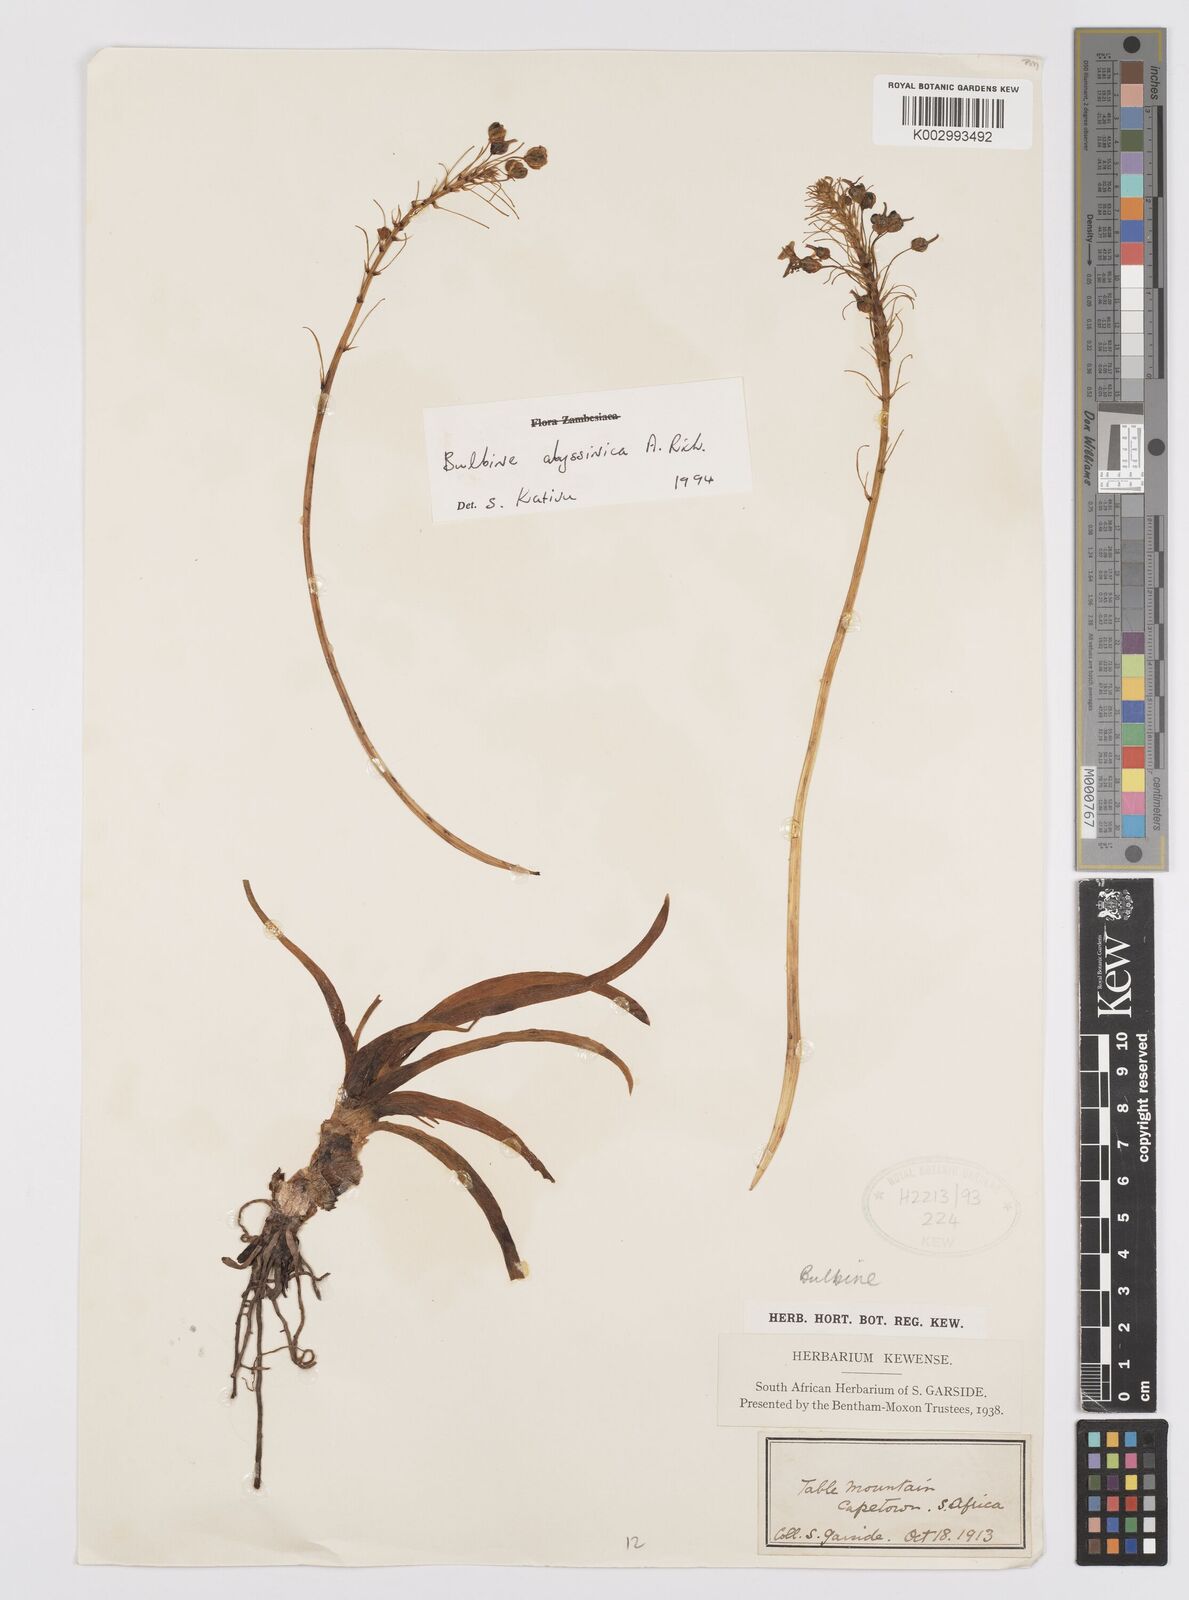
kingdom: Plantae
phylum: Tracheophyta
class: Liliopsida
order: Asparagales
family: Asphodelaceae
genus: Bulbine
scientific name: Bulbine abyssinica
